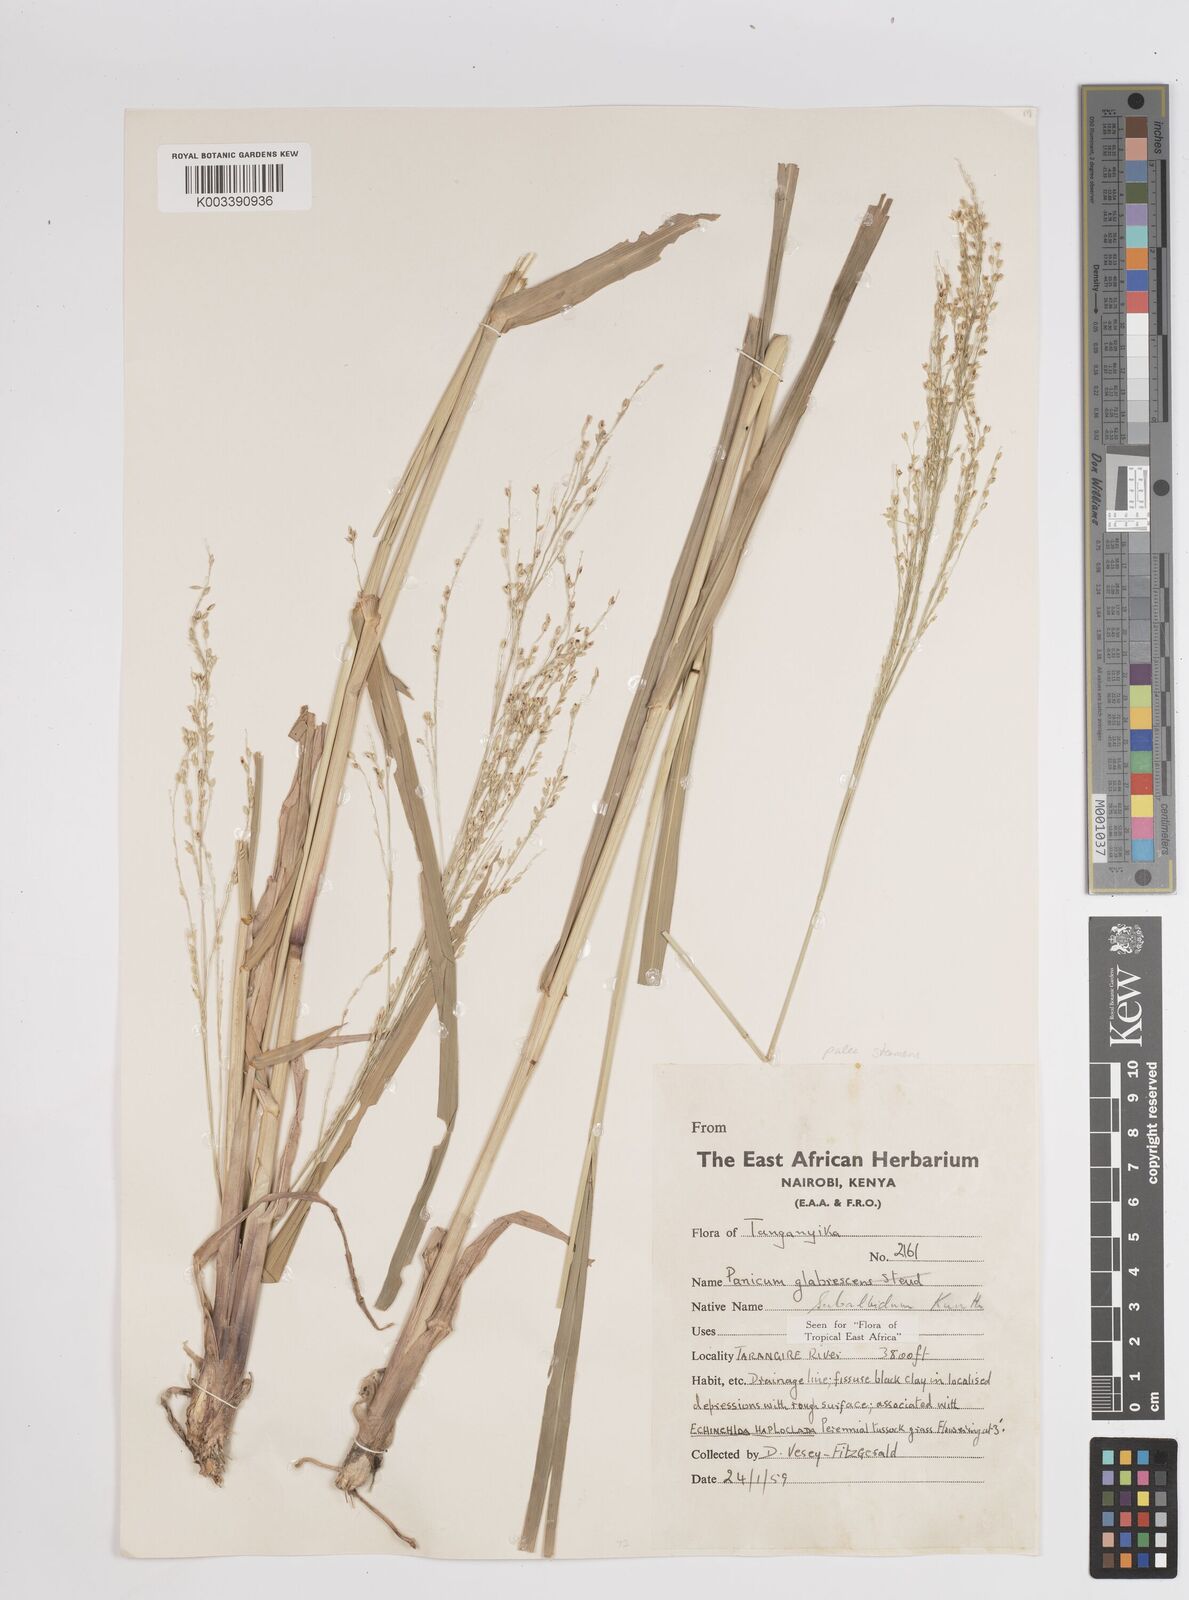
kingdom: Plantae
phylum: Tracheophyta
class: Liliopsida
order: Poales
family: Poaceae
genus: Panicum
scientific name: Panicum subalbidum
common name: Elbow buffalo grass
